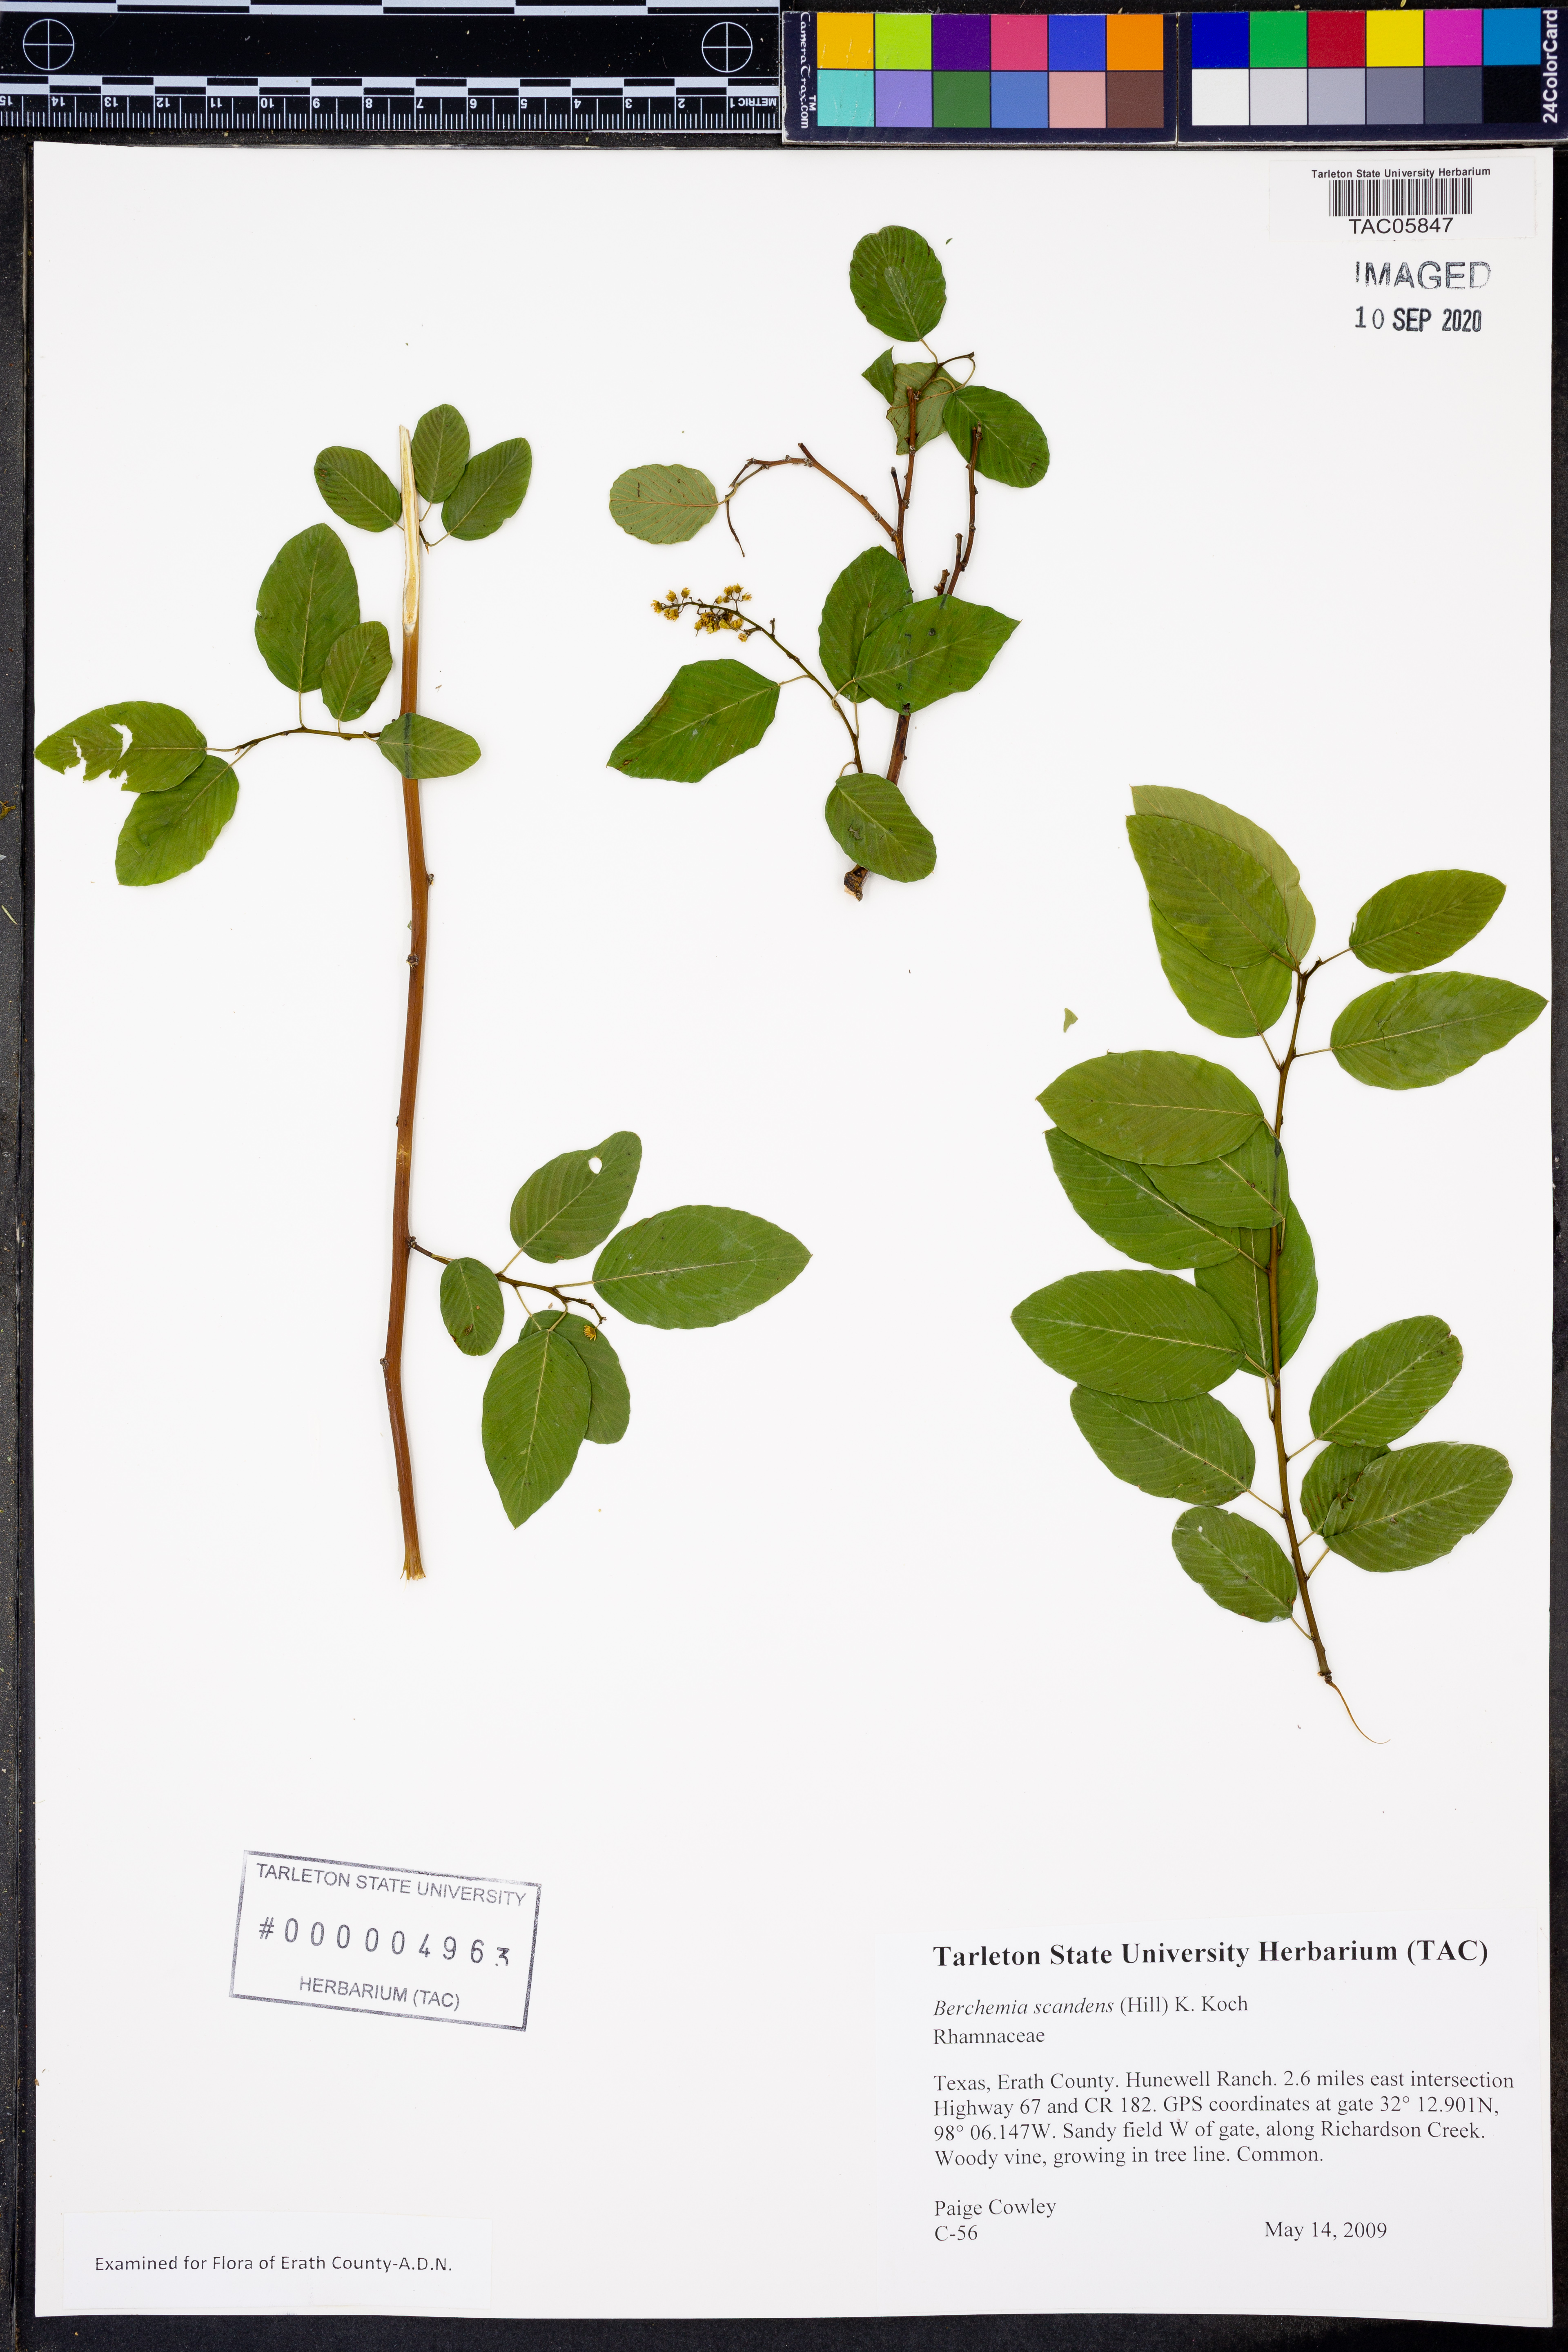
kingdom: Plantae
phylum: Tracheophyta
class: Magnoliopsida
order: Rosales
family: Rhamnaceae
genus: Berchemia
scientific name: Berchemia scandens
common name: Supplejack
